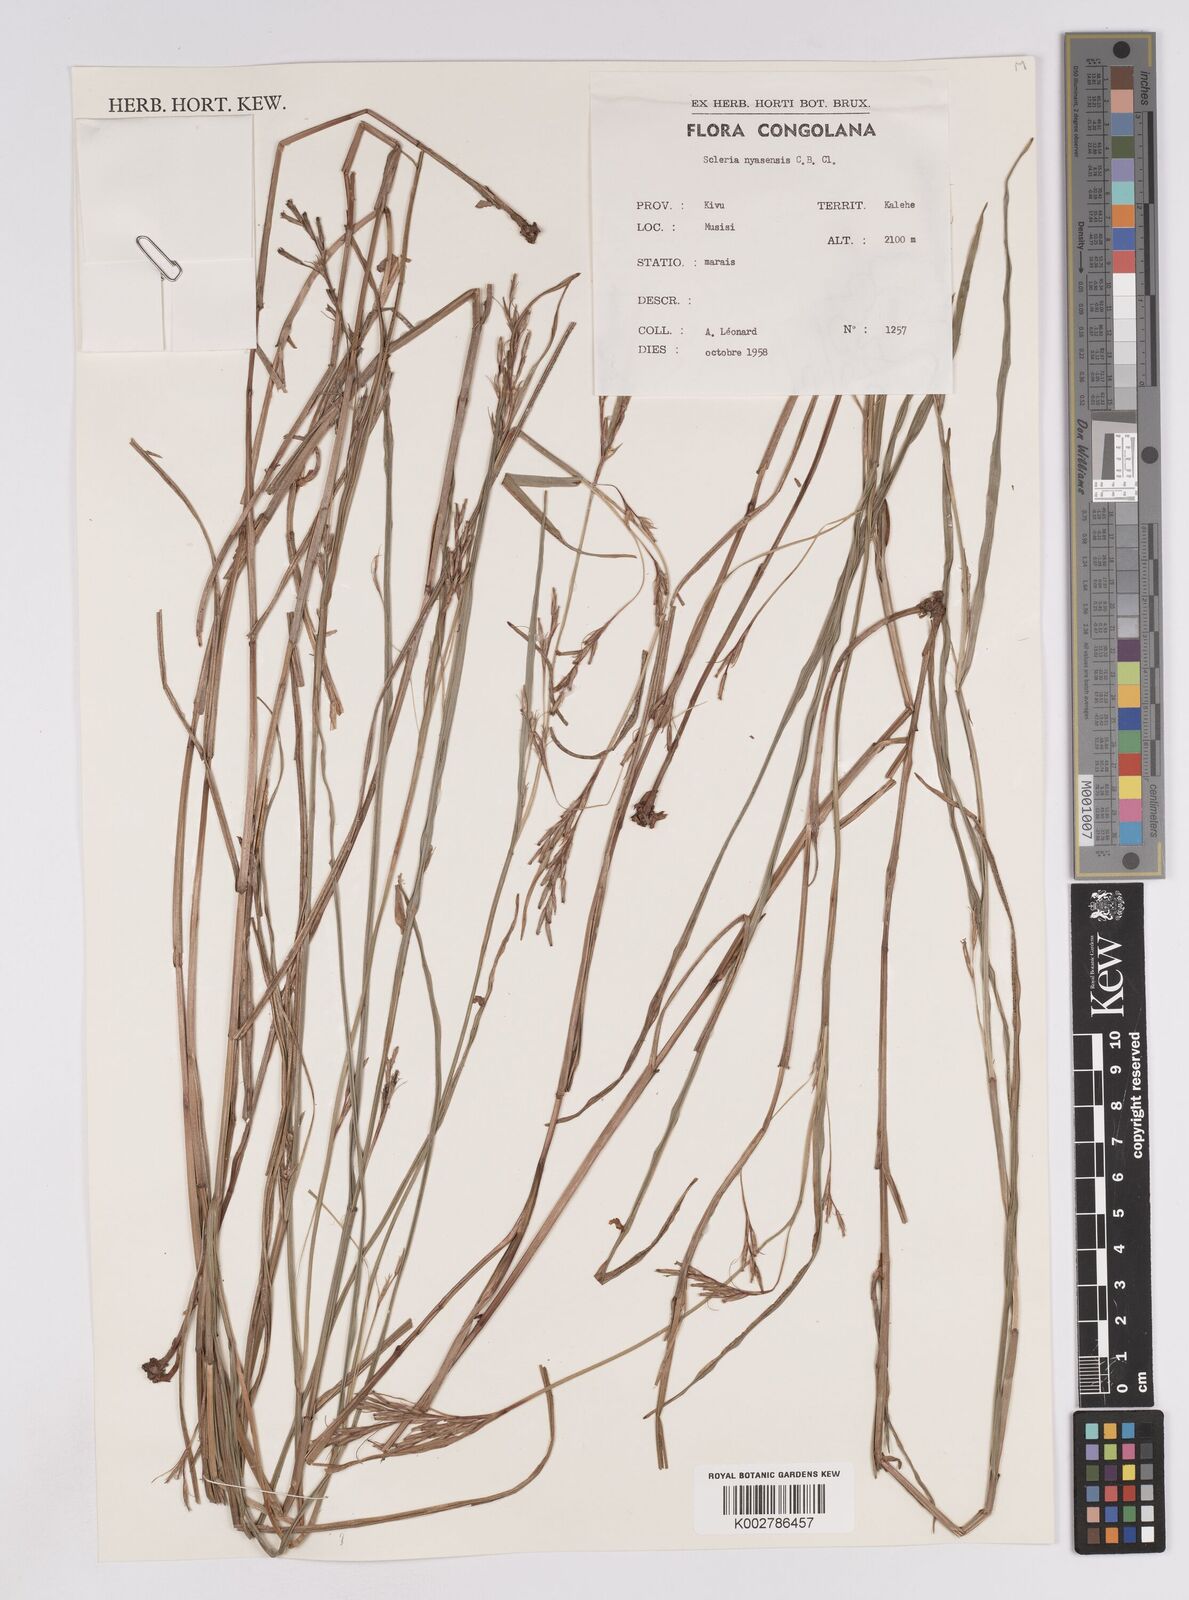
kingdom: Plantae
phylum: Tracheophyta
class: Liliopsida
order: Poales
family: Cyperaceae
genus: Scleria
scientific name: Scleria nyasensis
